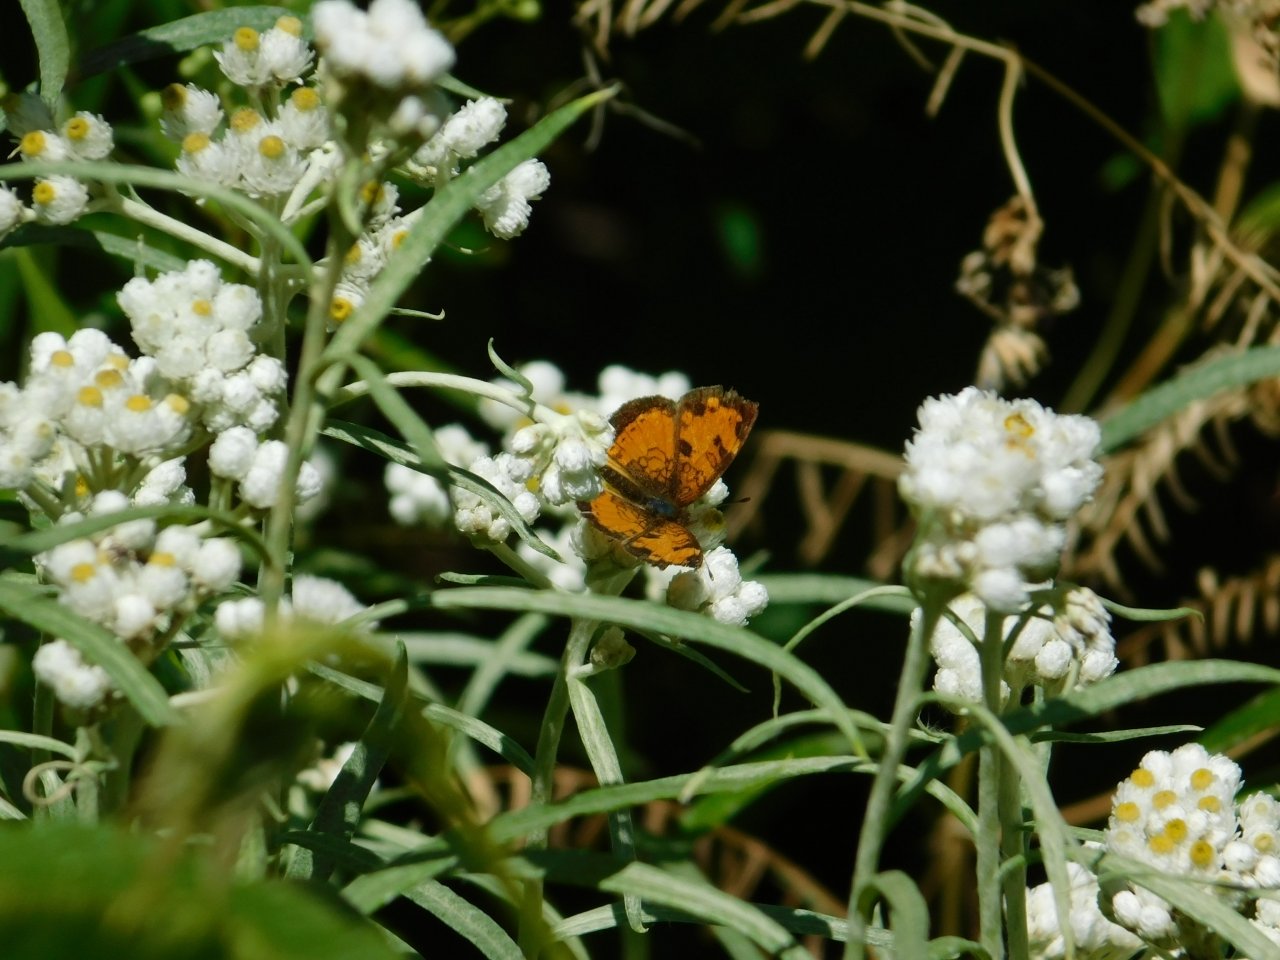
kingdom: Animalia
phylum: Arthropoda
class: Insecta
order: Lepidoptera
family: Nymphalidae
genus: Phyciodes
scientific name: Phyciodes tharos
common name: Northern Crescent
